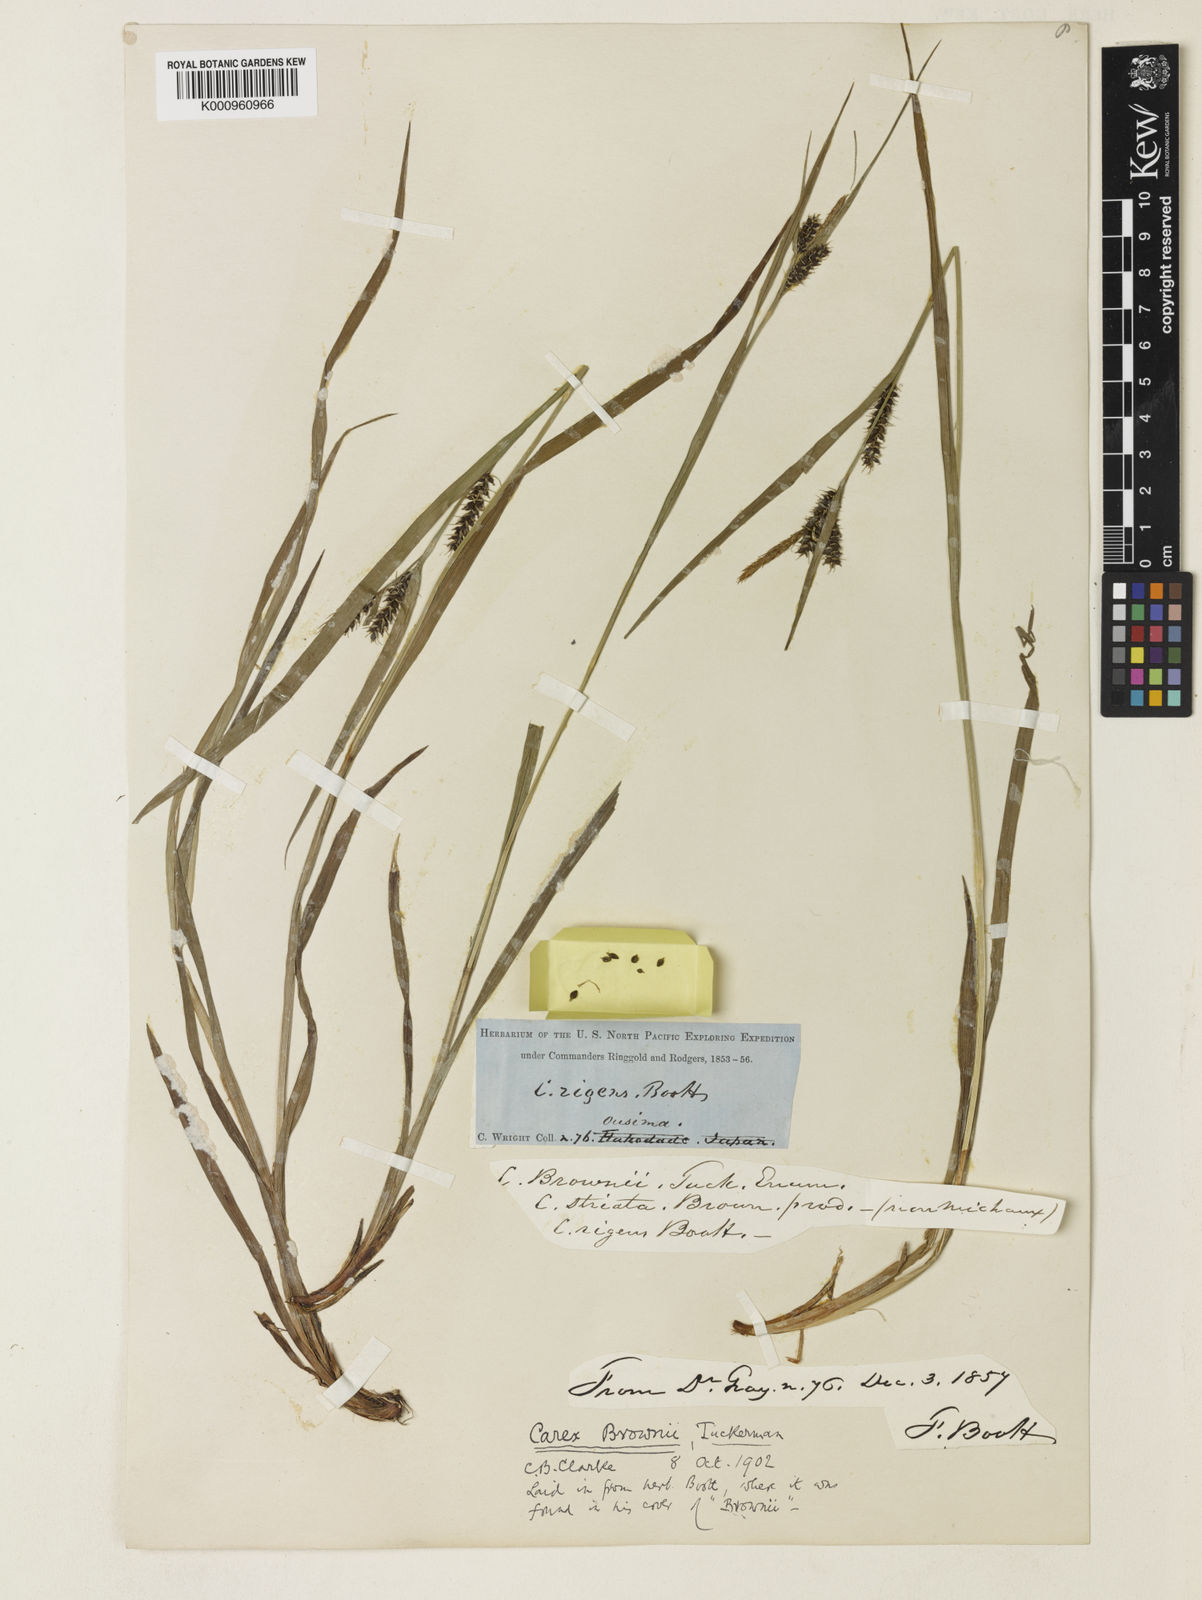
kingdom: Plantae
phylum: Tracheophyta
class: Liliopsida
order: Poales
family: Cyperaceae
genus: Carex
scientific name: Carex brownii
